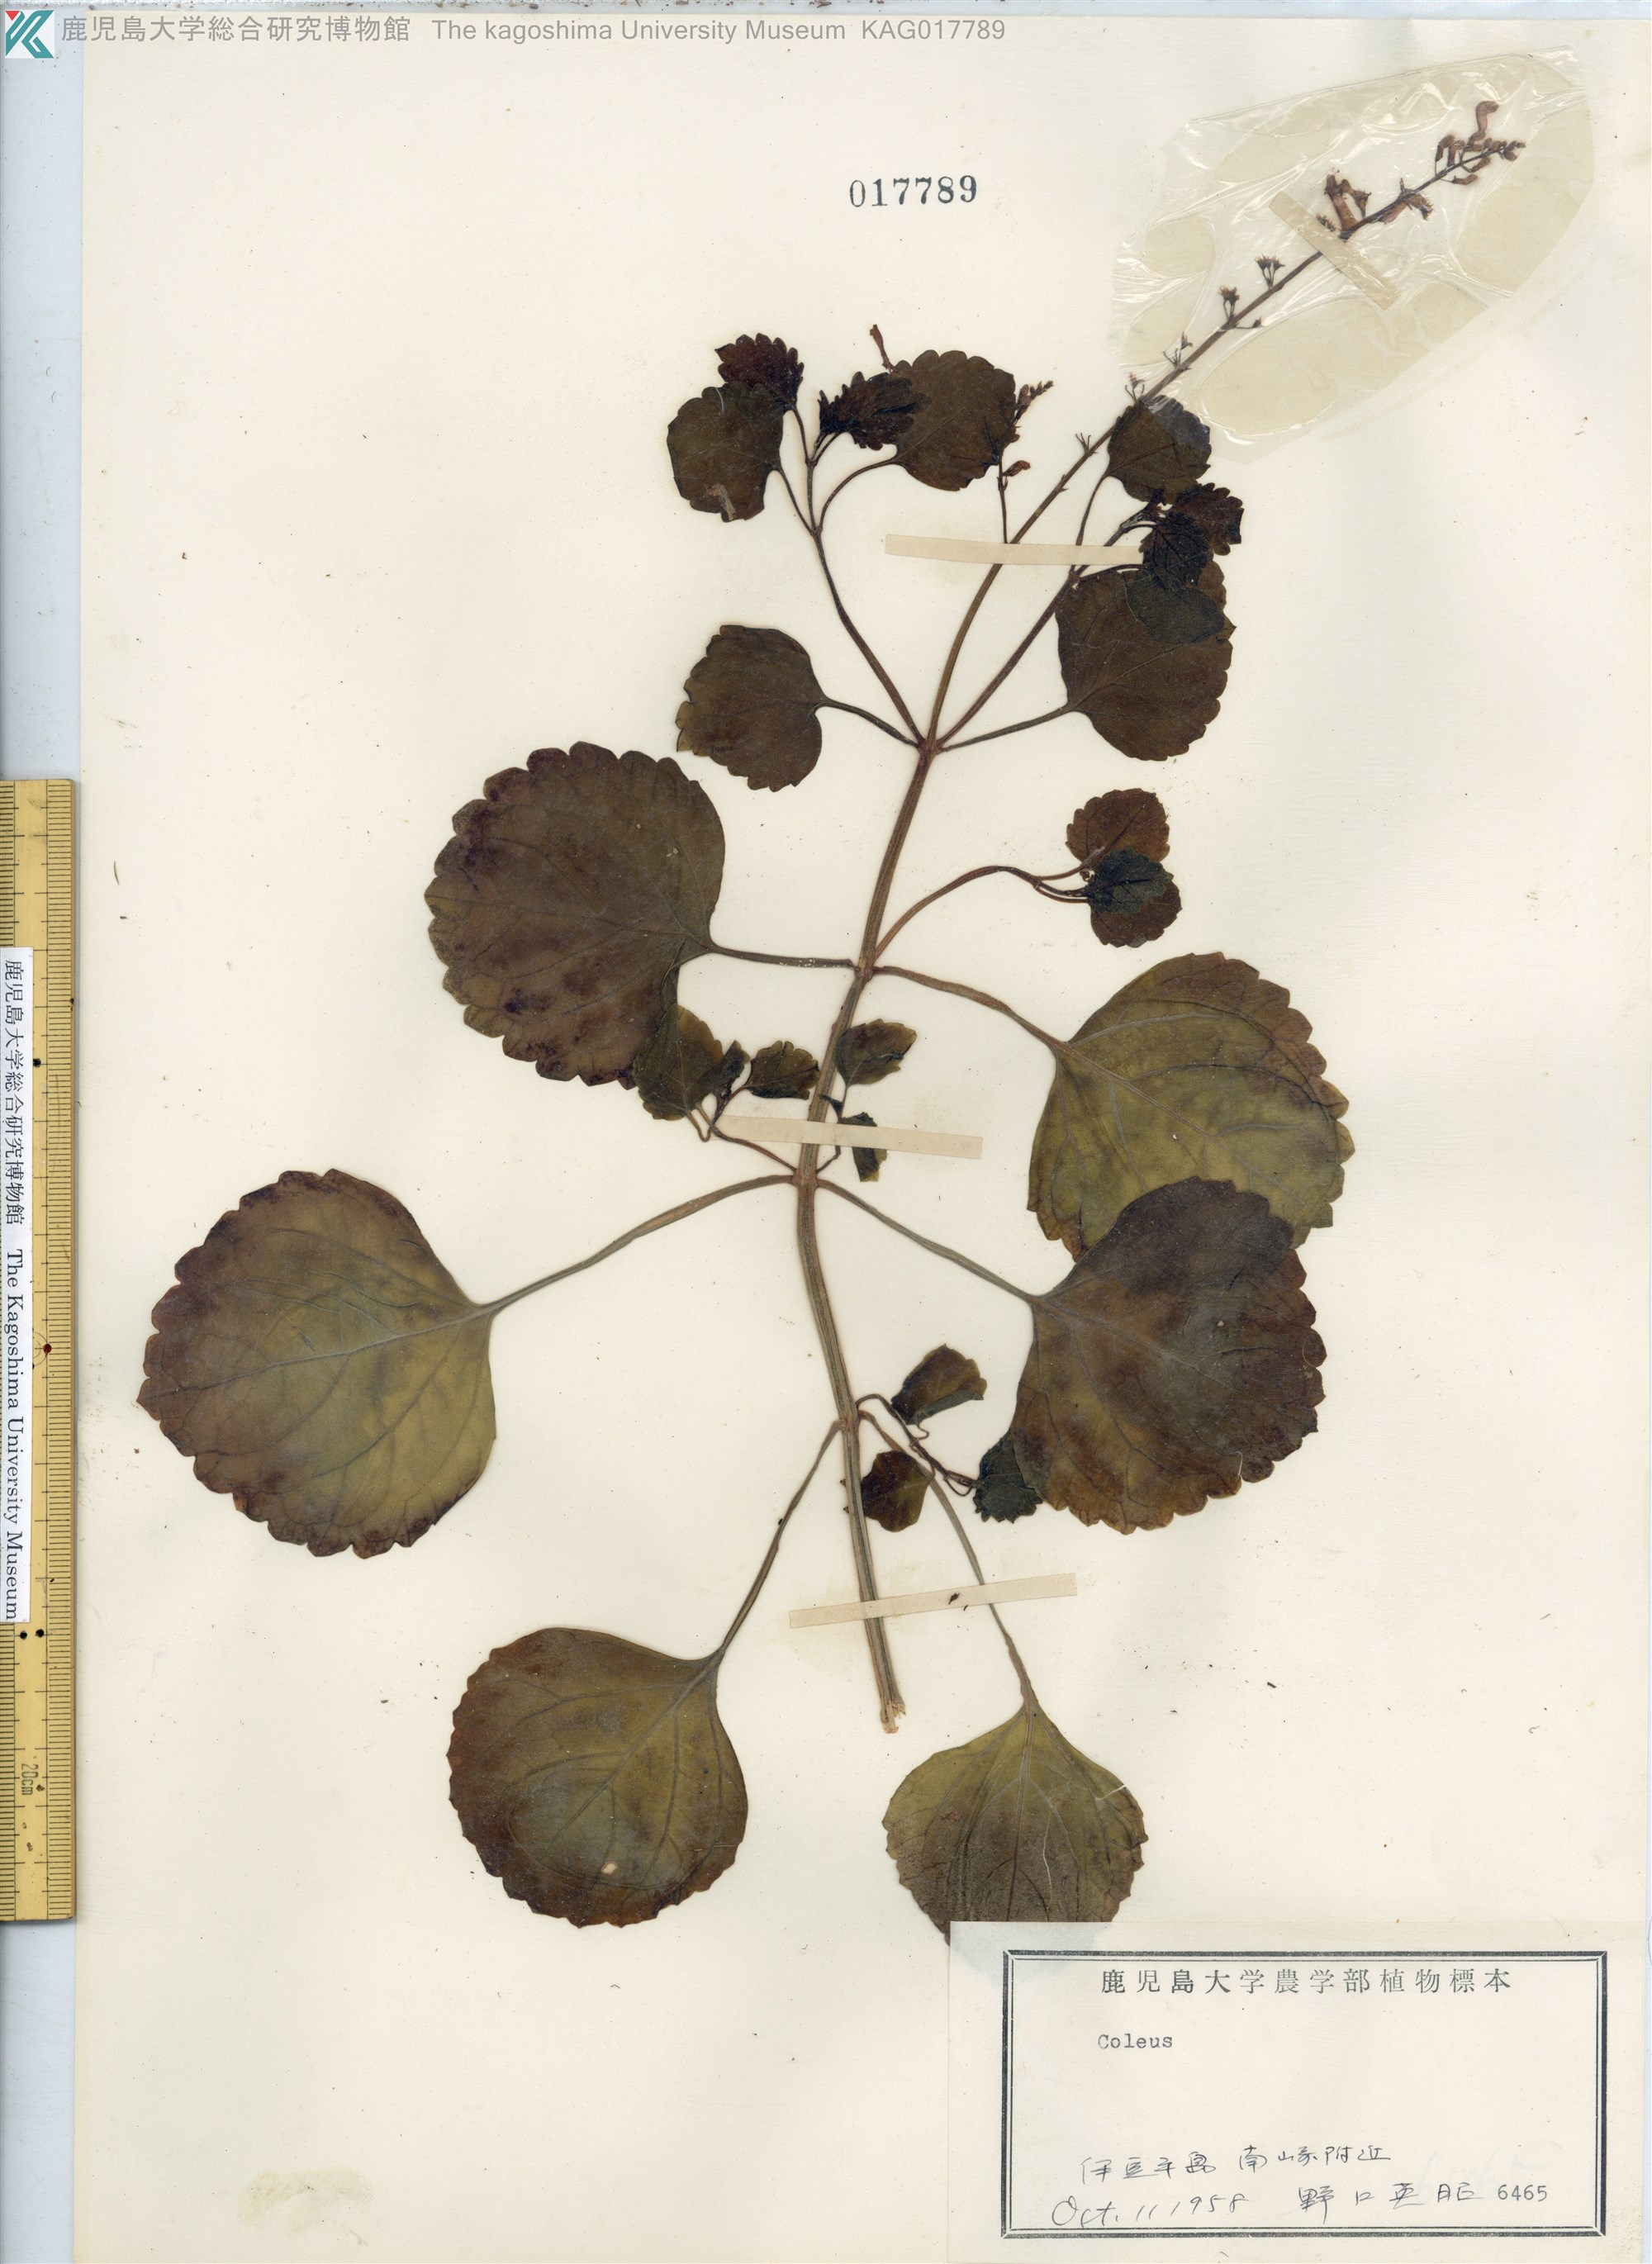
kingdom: Plantae
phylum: Tracheophyta
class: Magnoliopsida
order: Lamiales
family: Lamiaceae
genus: Coleus
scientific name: Coleus parishii
